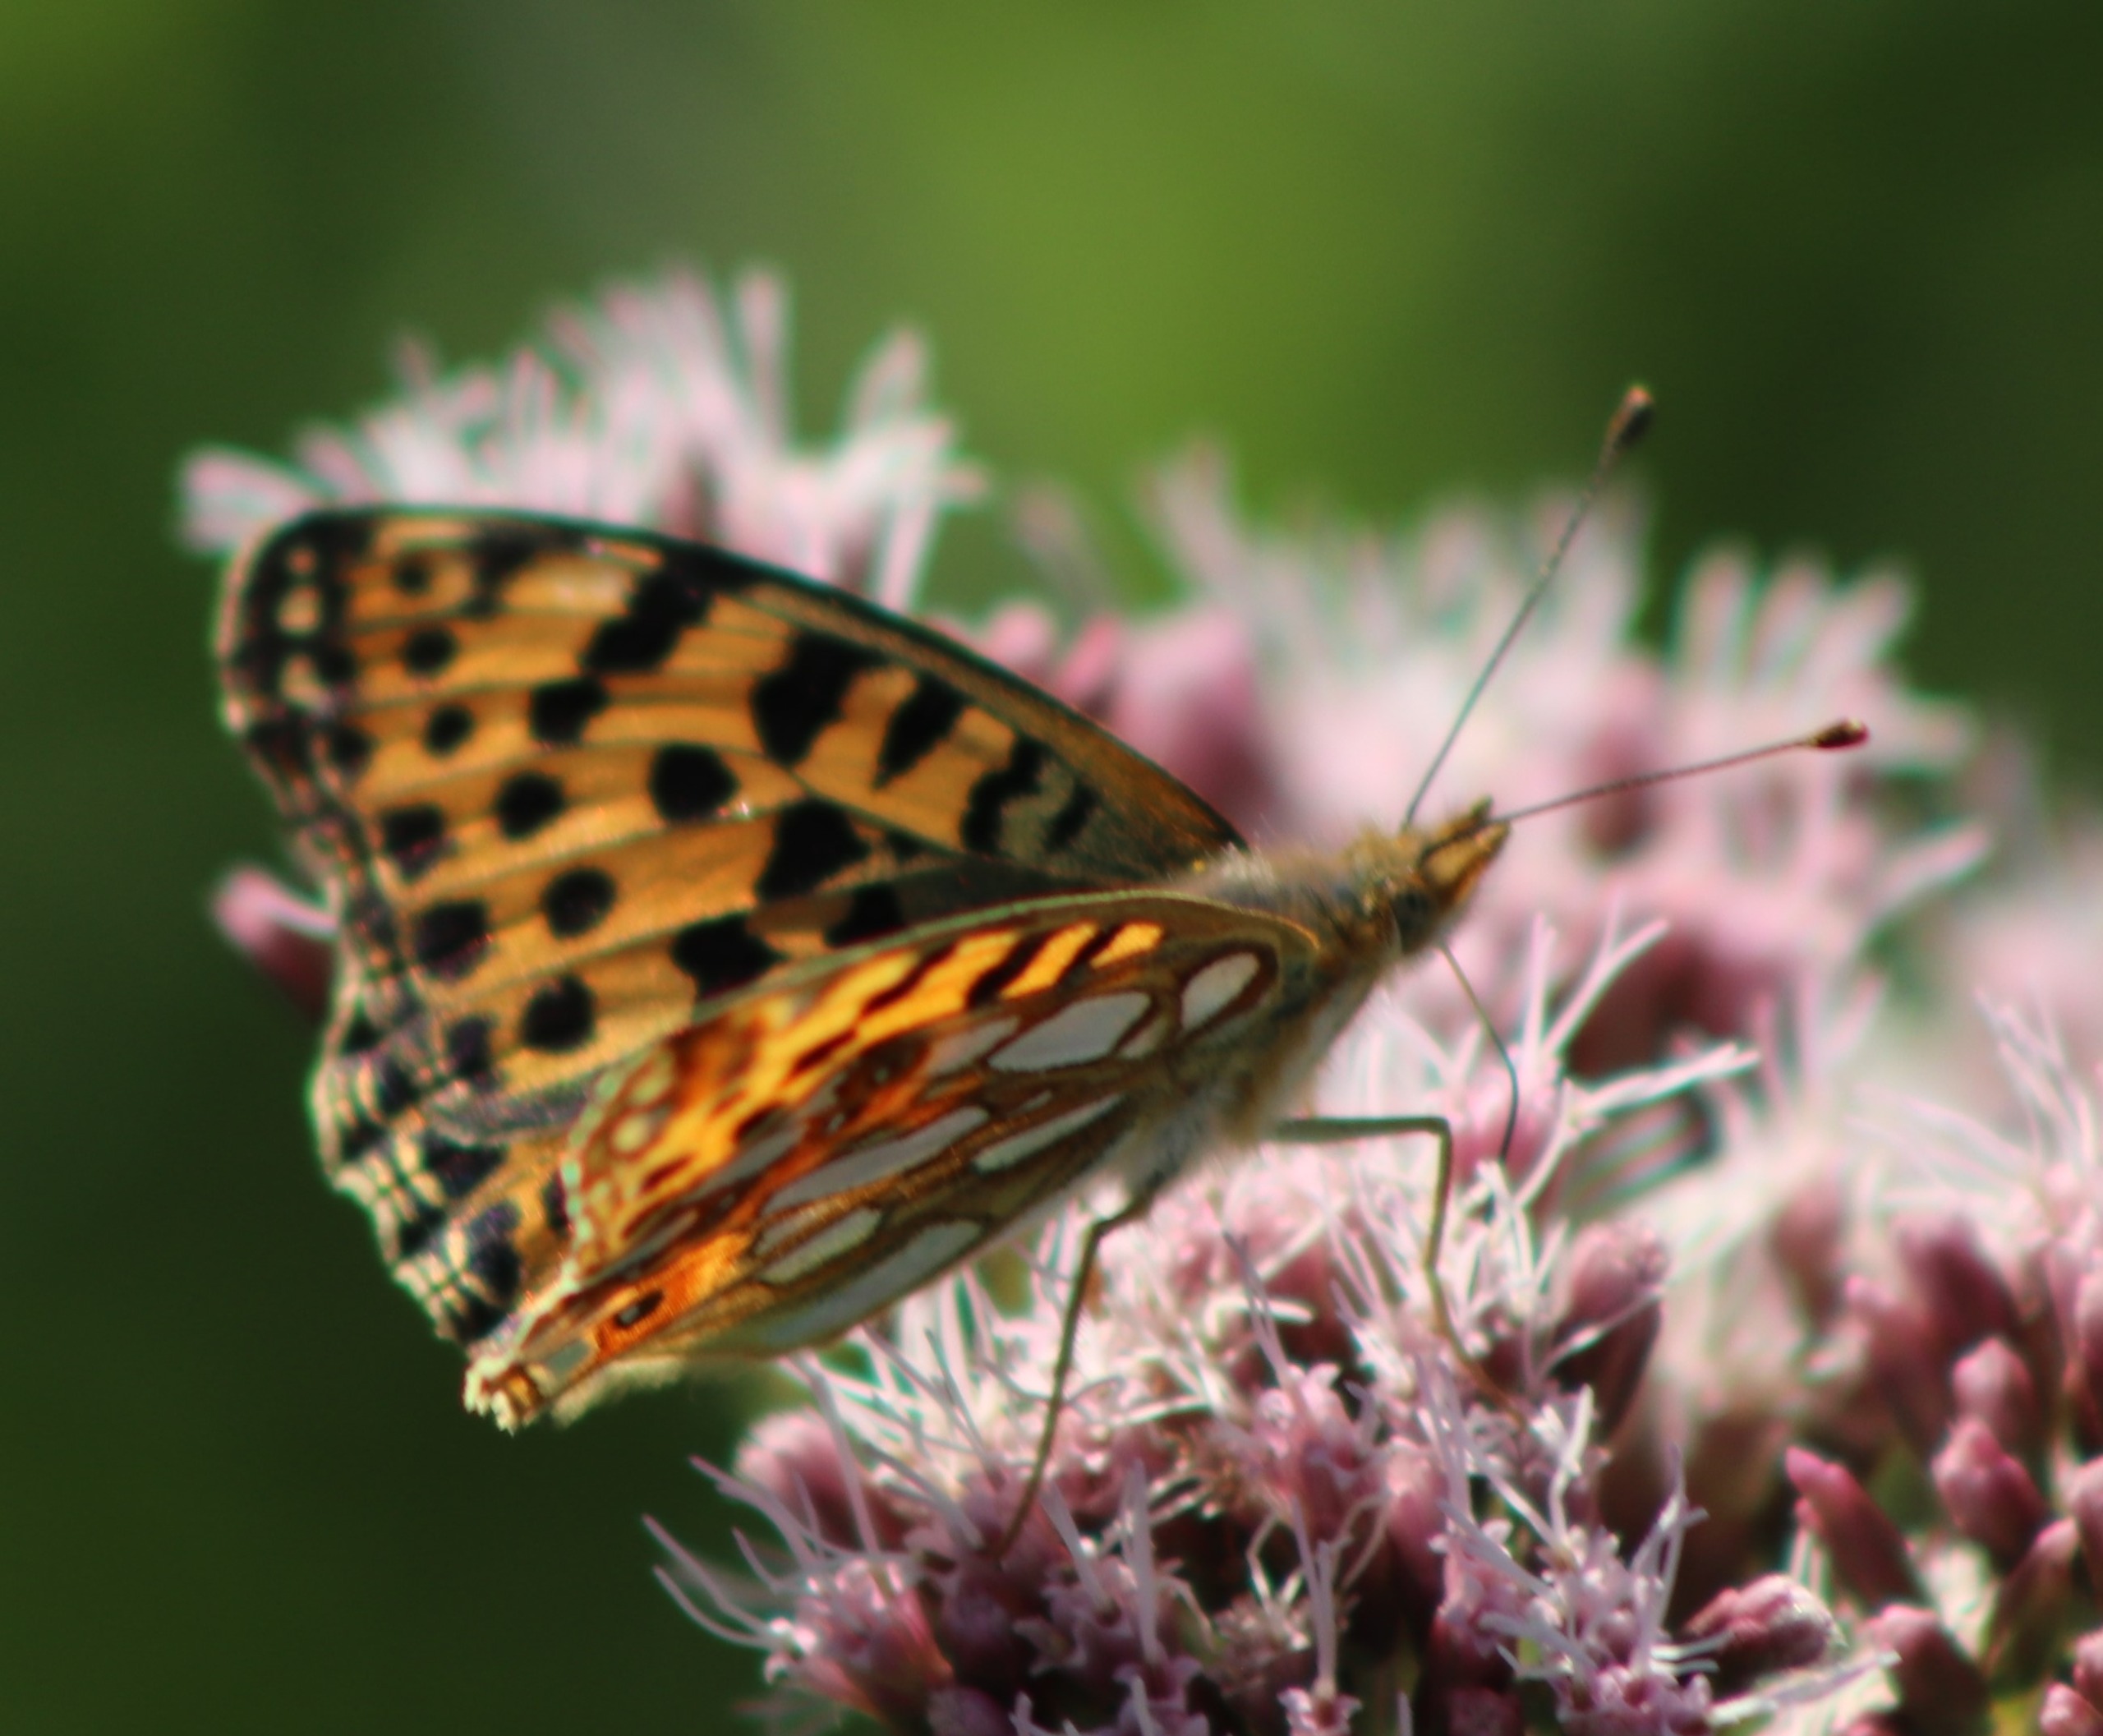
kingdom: Animalia
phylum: Arthropoda
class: Insecta
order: Lepidoptera
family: Nymphalidae
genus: Issoria
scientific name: Issoria lathonia
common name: Storplettet perlemorsommerfugl
